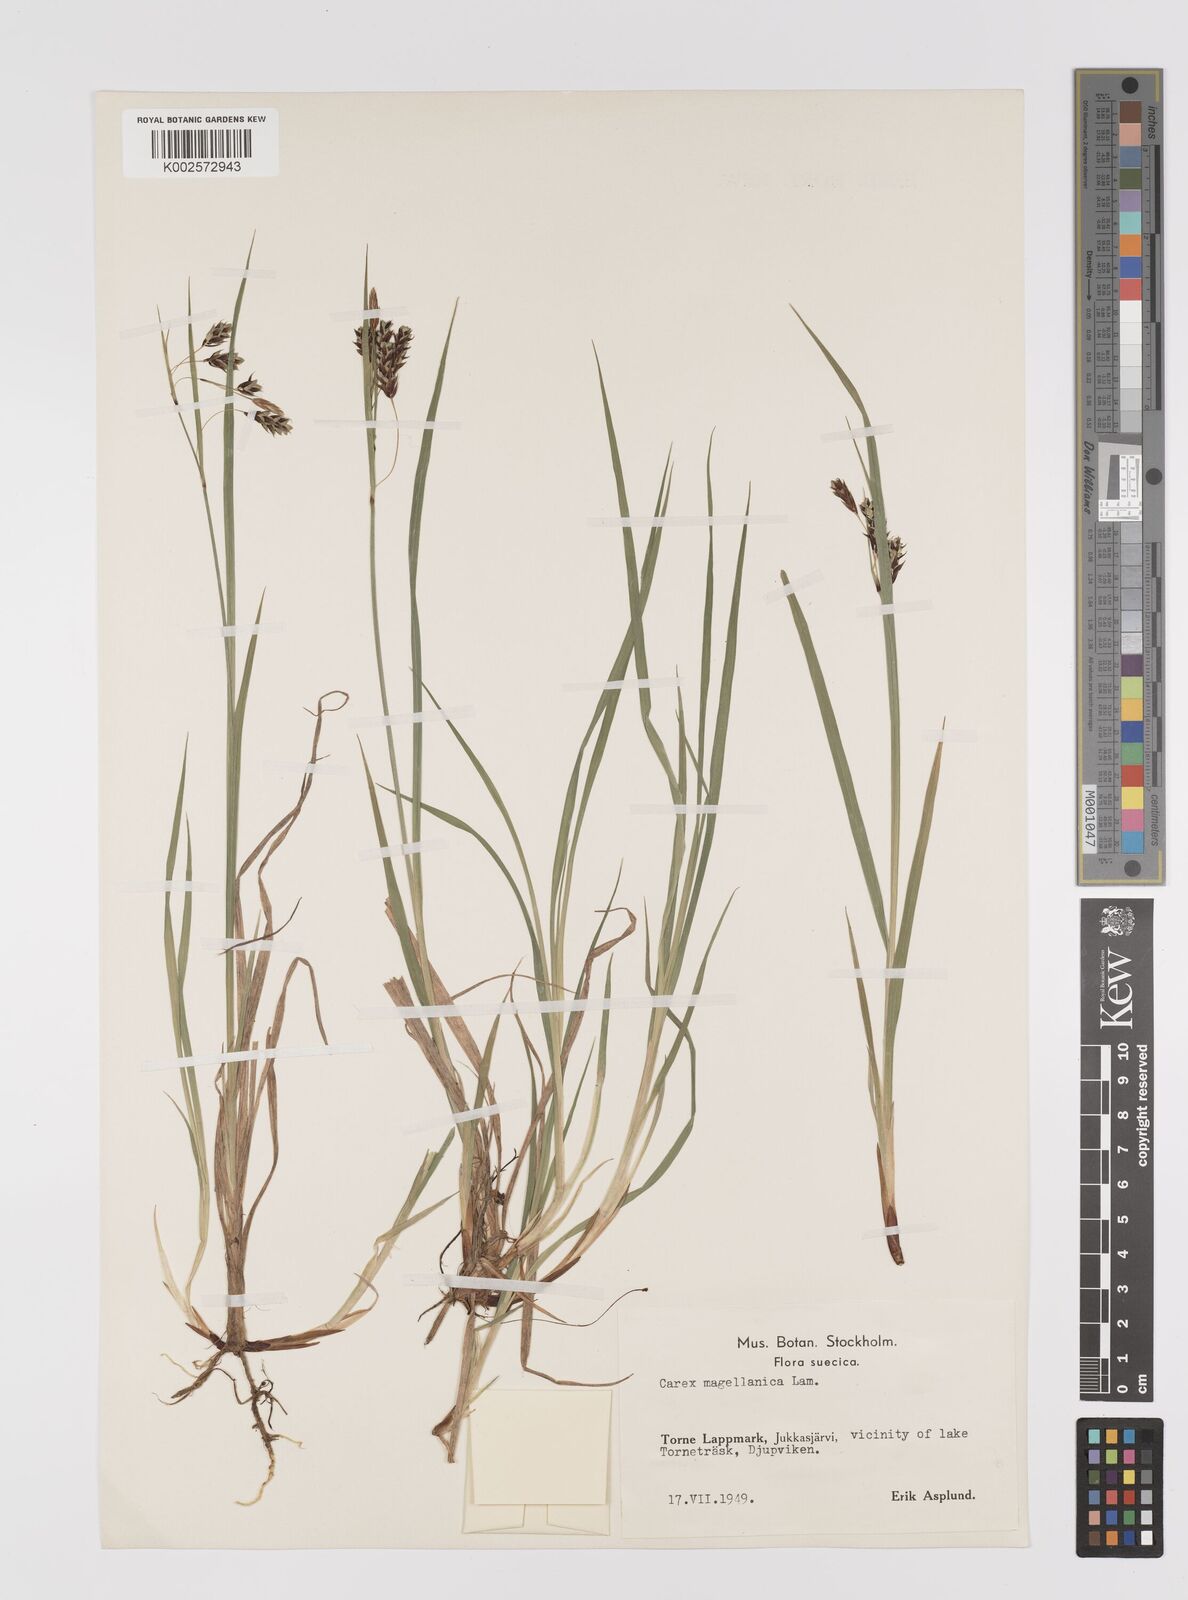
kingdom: Plantae
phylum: Tracheophyta
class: Liliopsida
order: Poales
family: Cyperaceae
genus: Carex
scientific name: Carex magellanica
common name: Bog sedge
